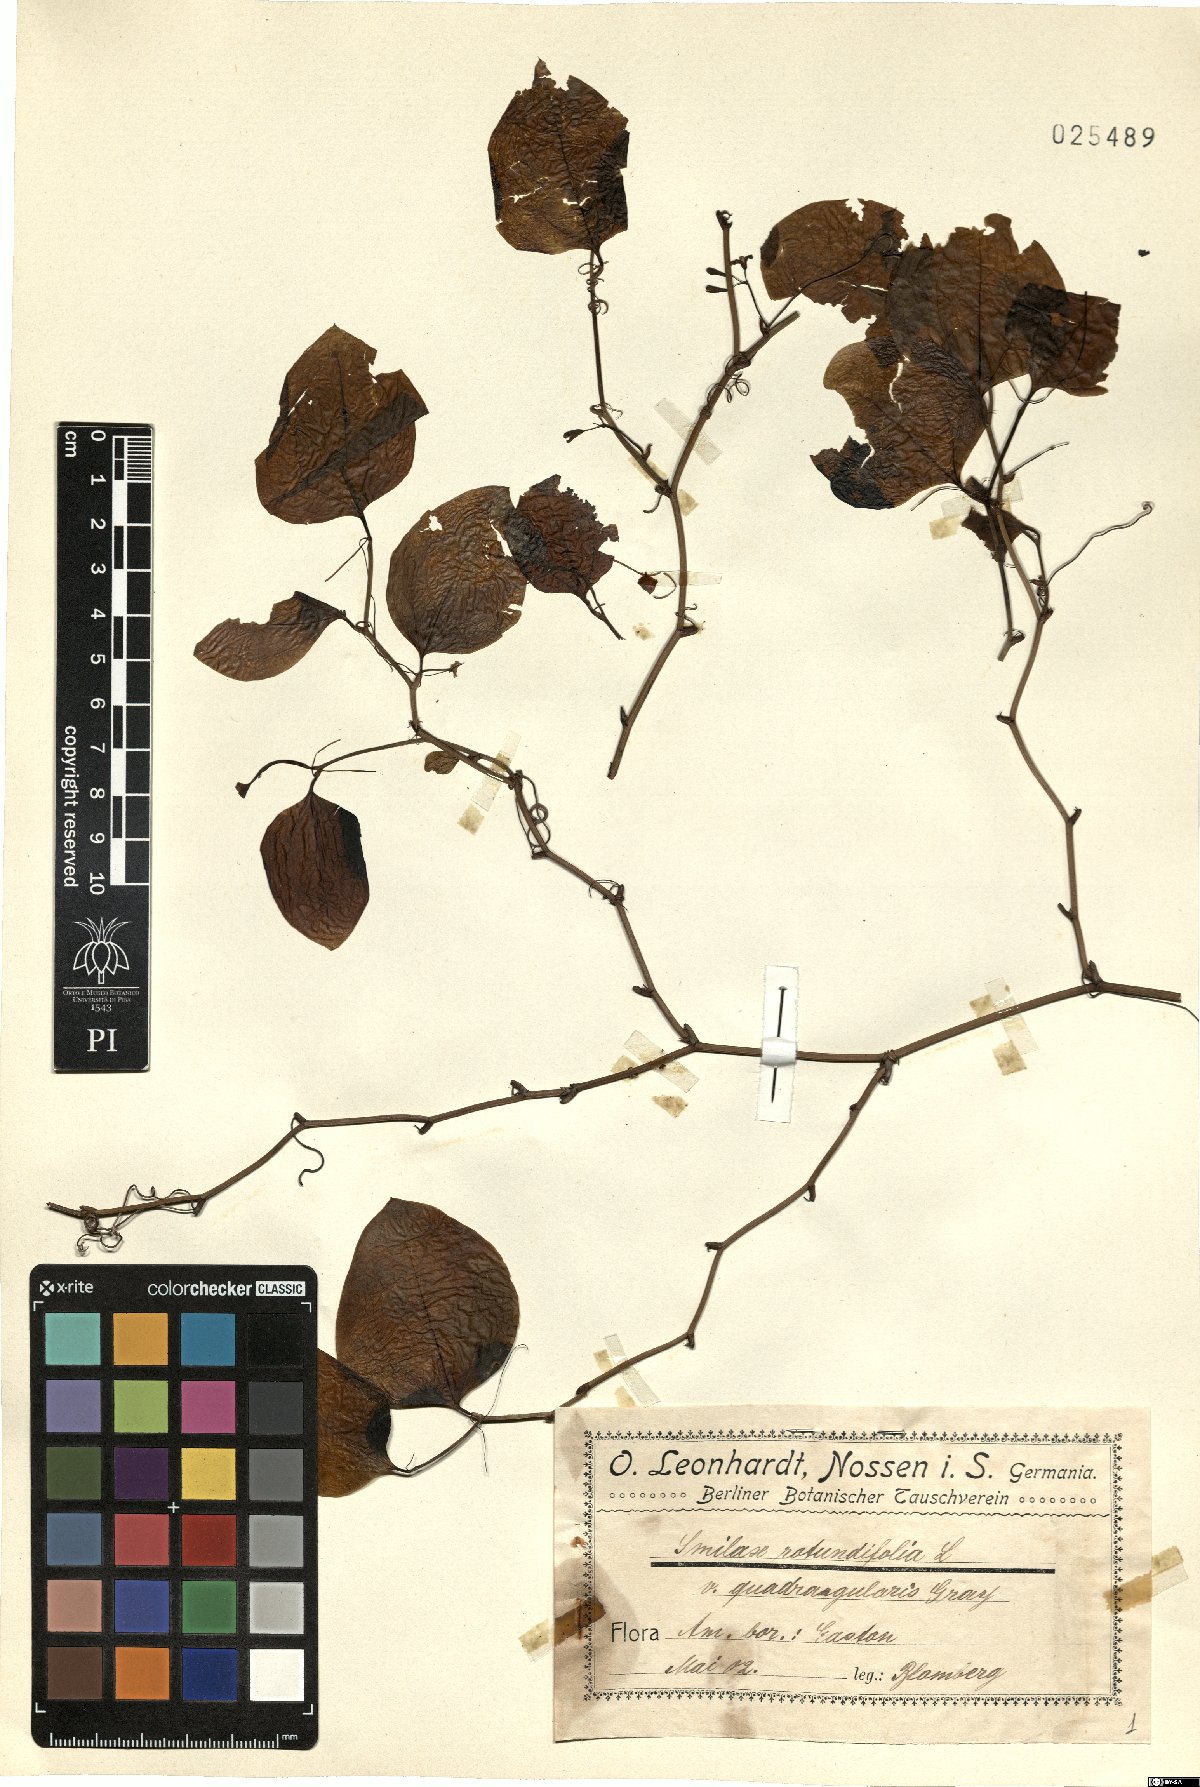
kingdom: Plantae
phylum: Tracheophyta
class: Liliopsida
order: Liliales
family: Smilacaceae
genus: Smilax
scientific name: Smilax rotundifolia
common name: Bullbriar
